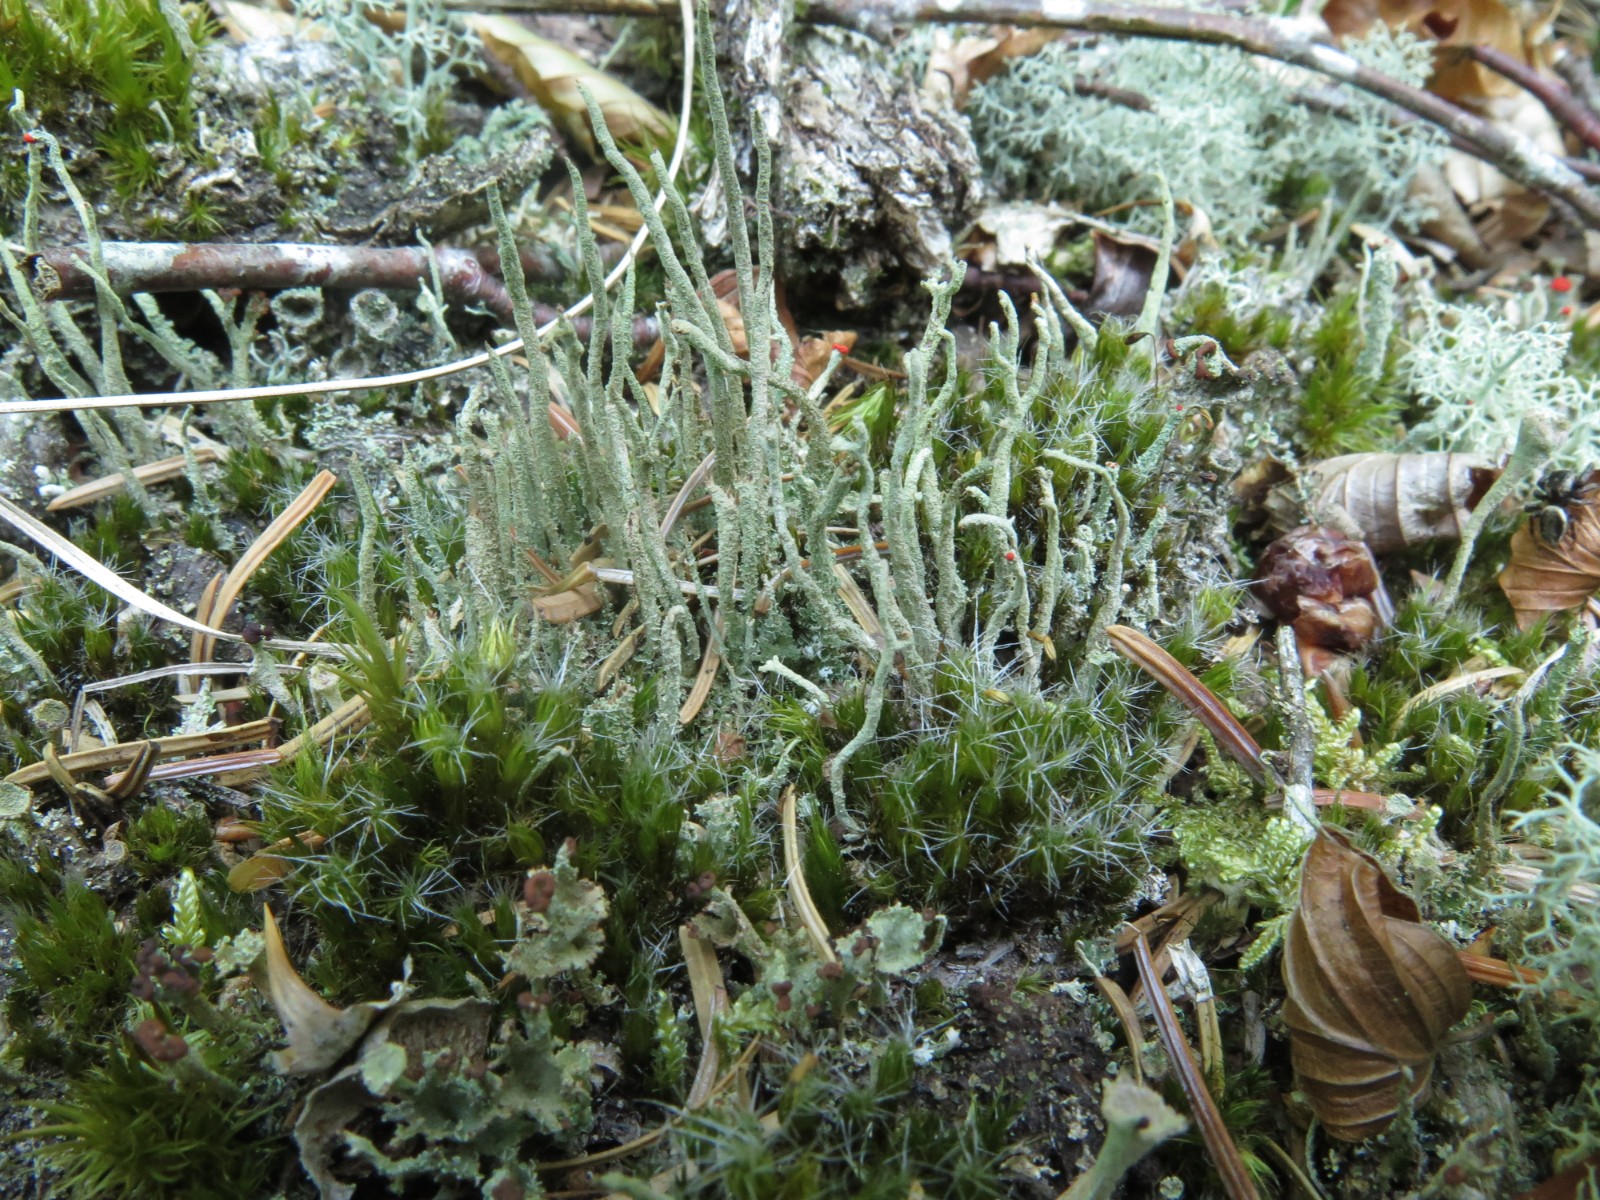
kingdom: Fungi
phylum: Ascomycota
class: Lecanoromycetes
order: Lecanorales
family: Cladoniaceae
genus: Cladonia
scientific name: Cladonia
